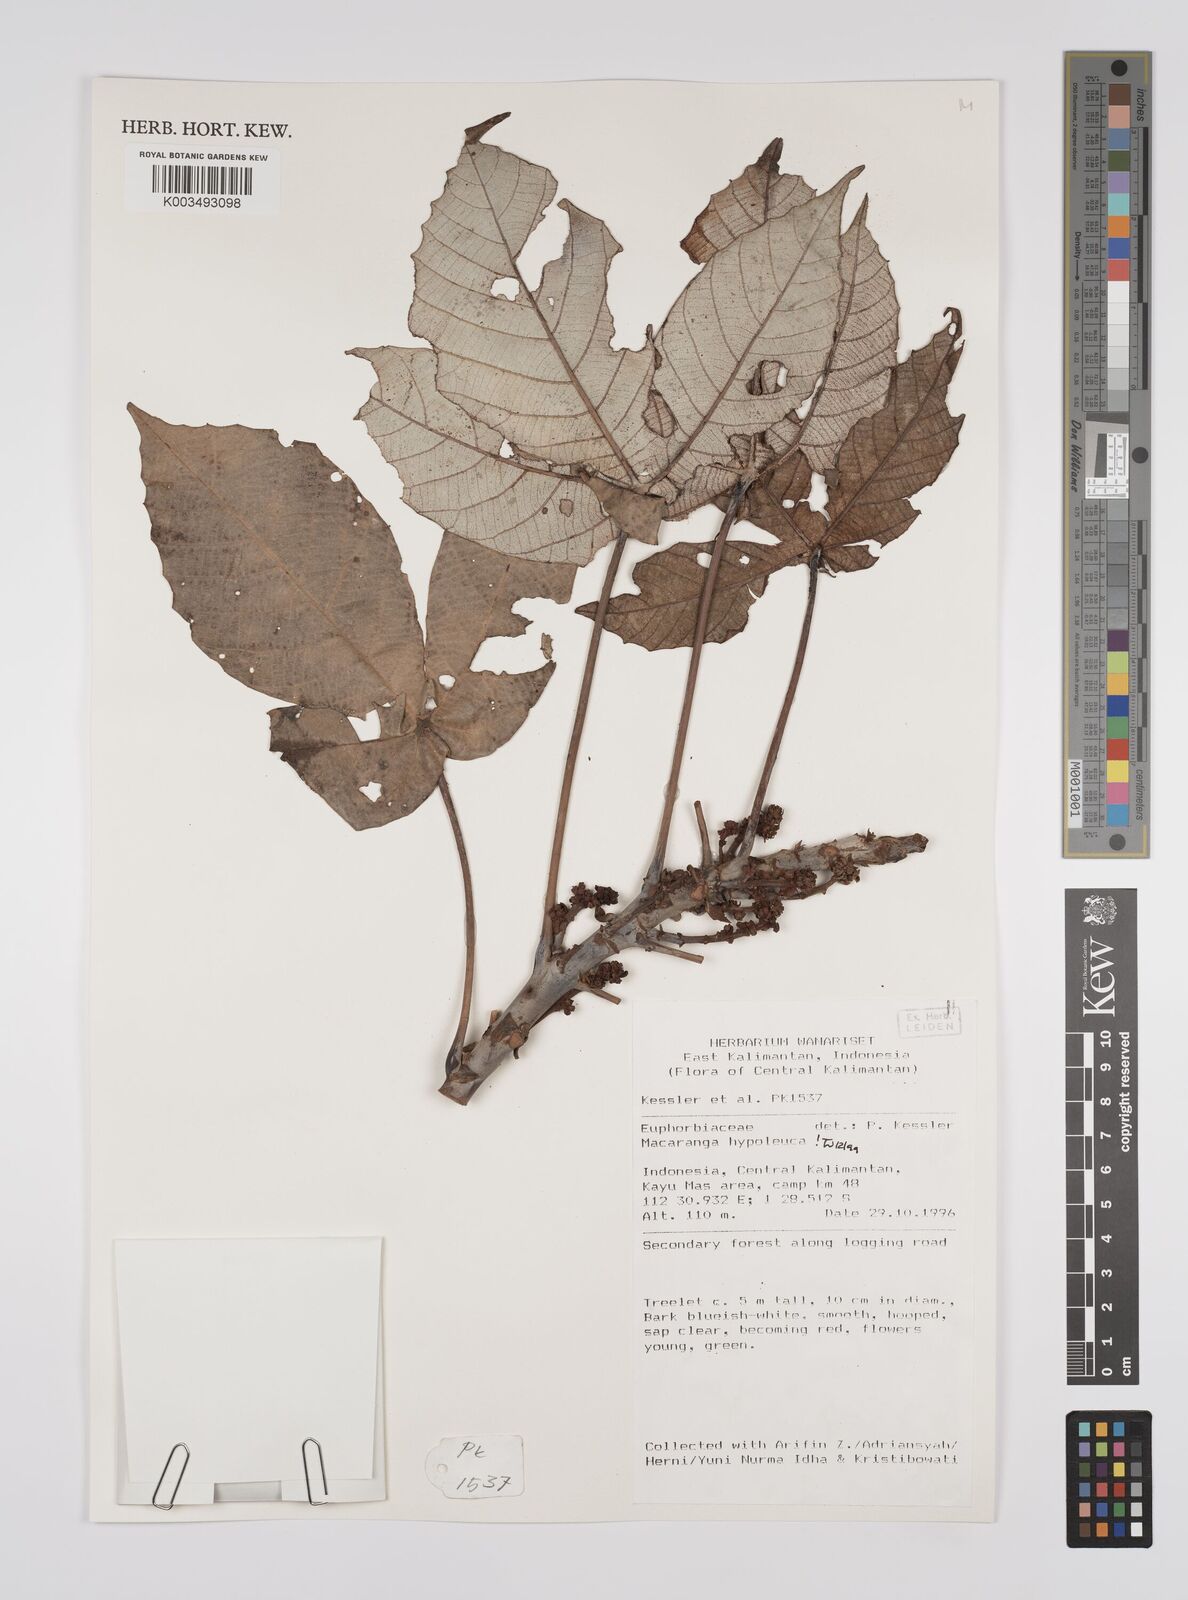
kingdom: Plantae
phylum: Tracheophyta
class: Magnoliopsida
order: Malpighiales
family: Euphorbiaceae
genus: Macaranga
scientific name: Macaranga hypoleuca
